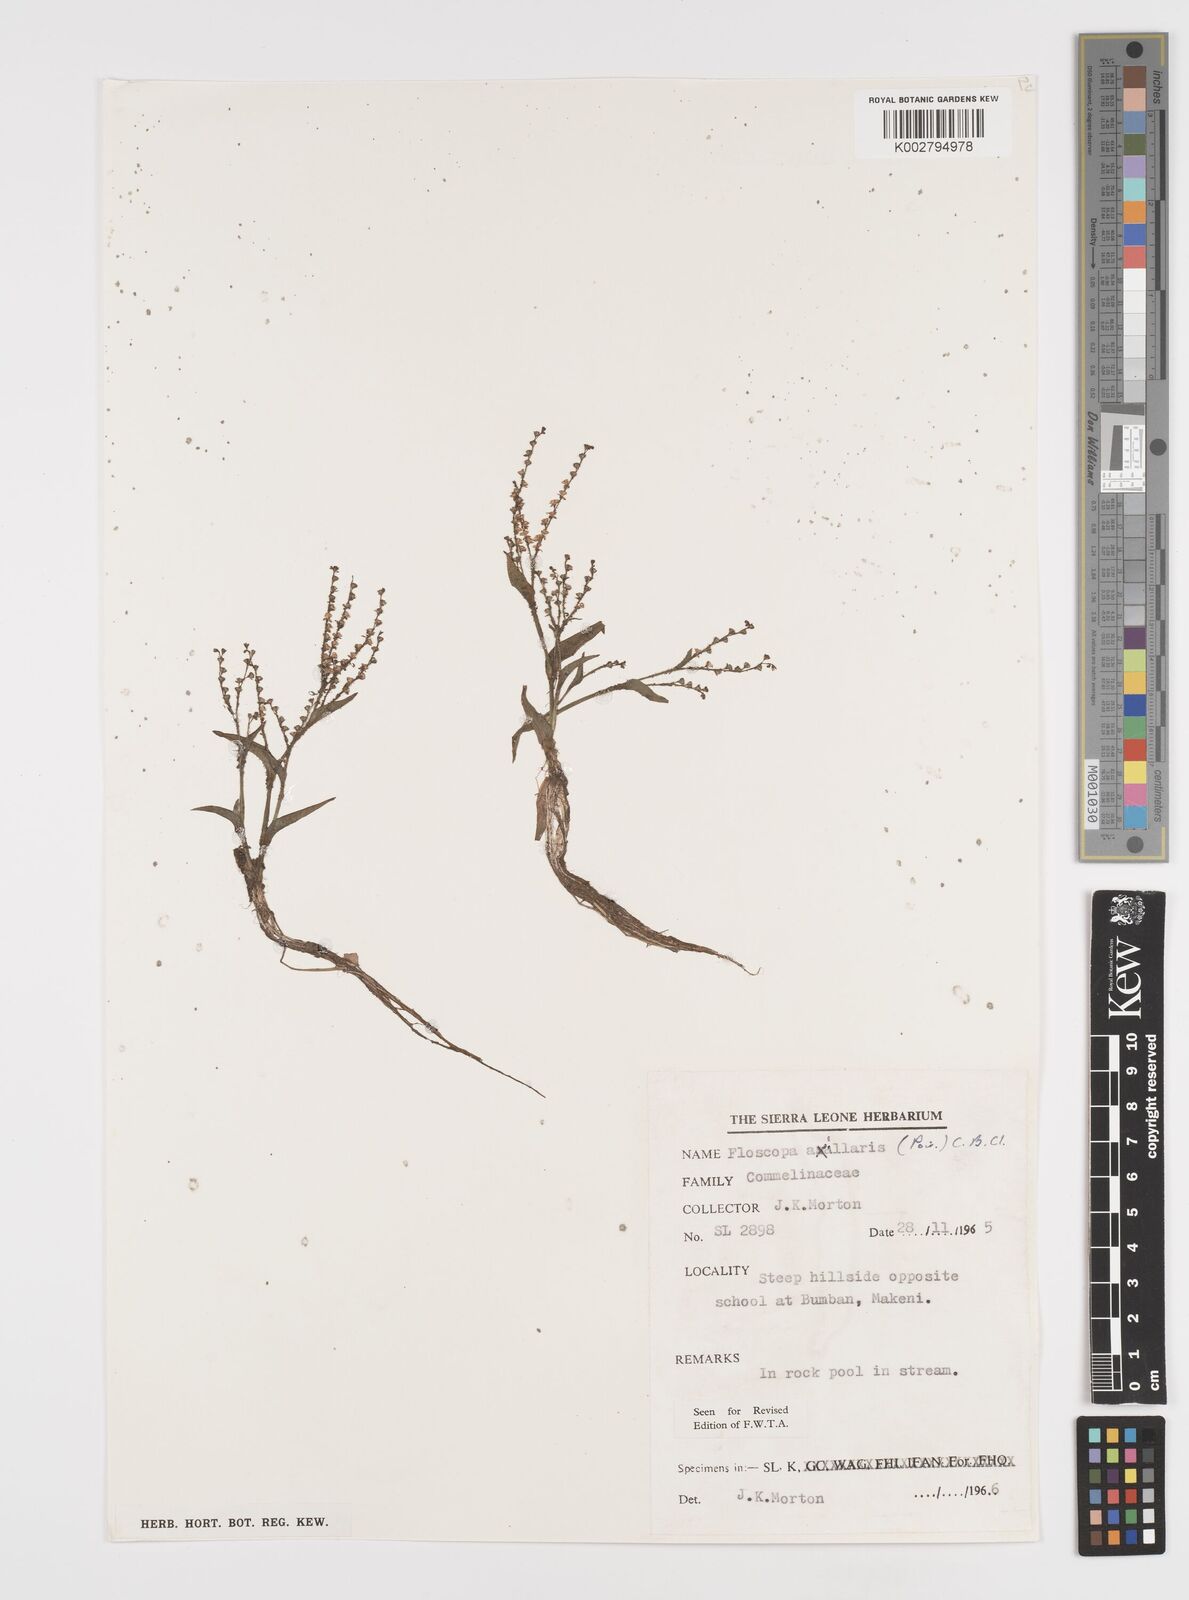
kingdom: Plantae
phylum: Tracheophyta
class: Liliopsida
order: Commelinales
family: Commelinaceae
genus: Floscopa
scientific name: Floscopa axillaris
